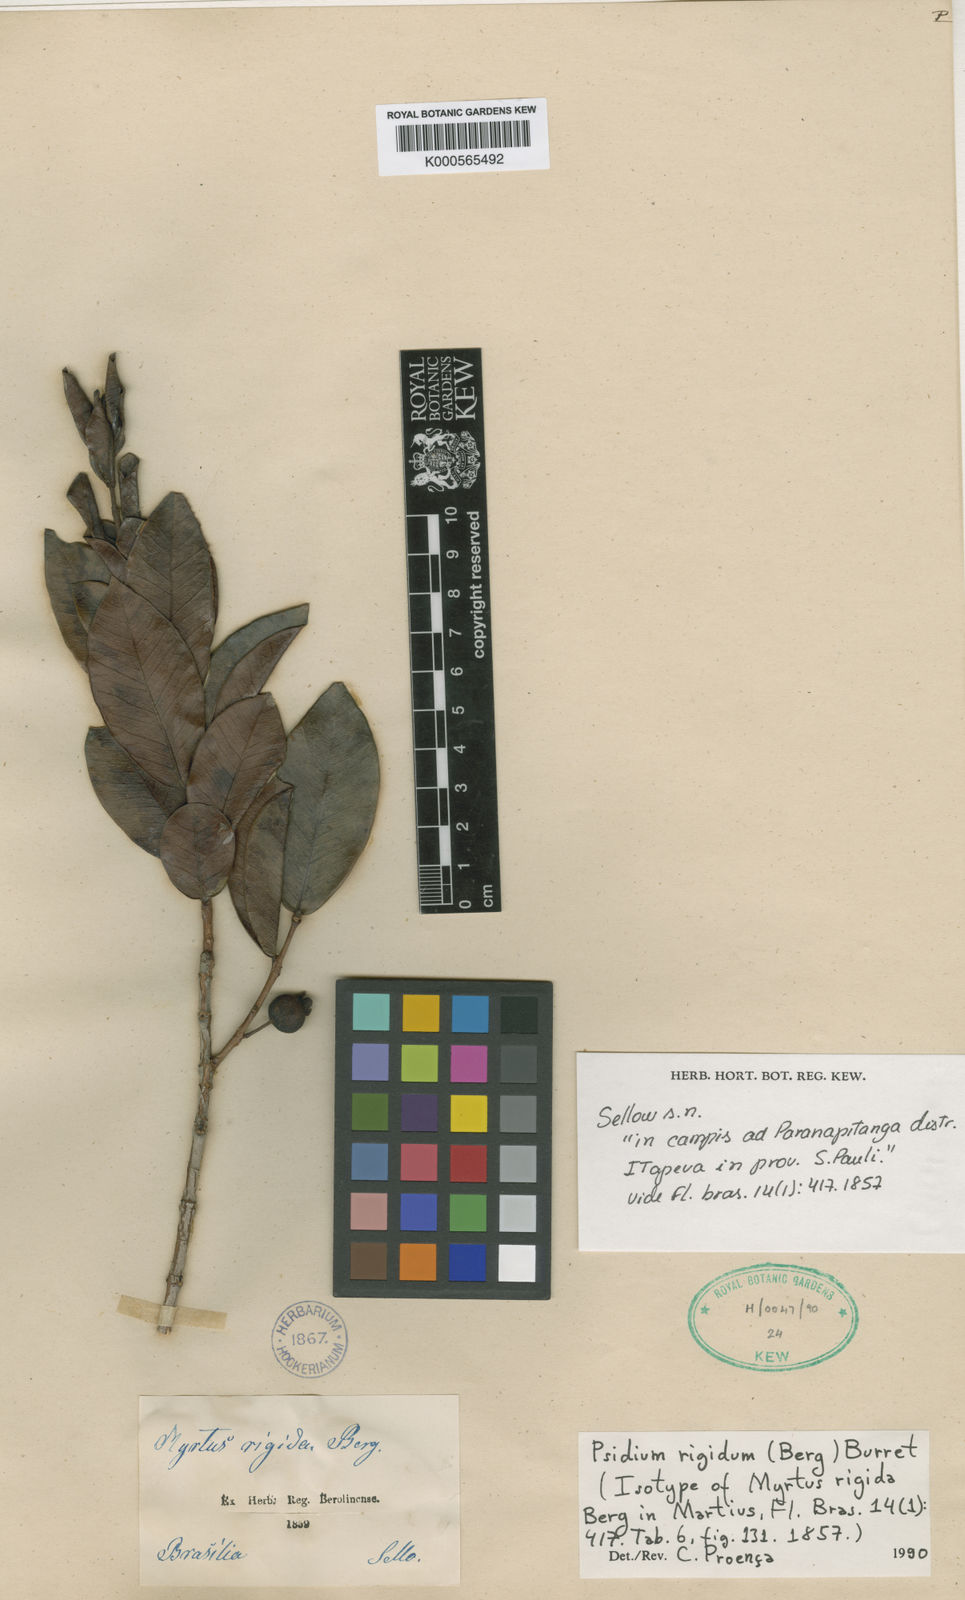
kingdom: Plantae
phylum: Tracheophyta
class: Magnoliopsida
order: Myrtales
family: Myrtaceae
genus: Psidium
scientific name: Psidium salutare
